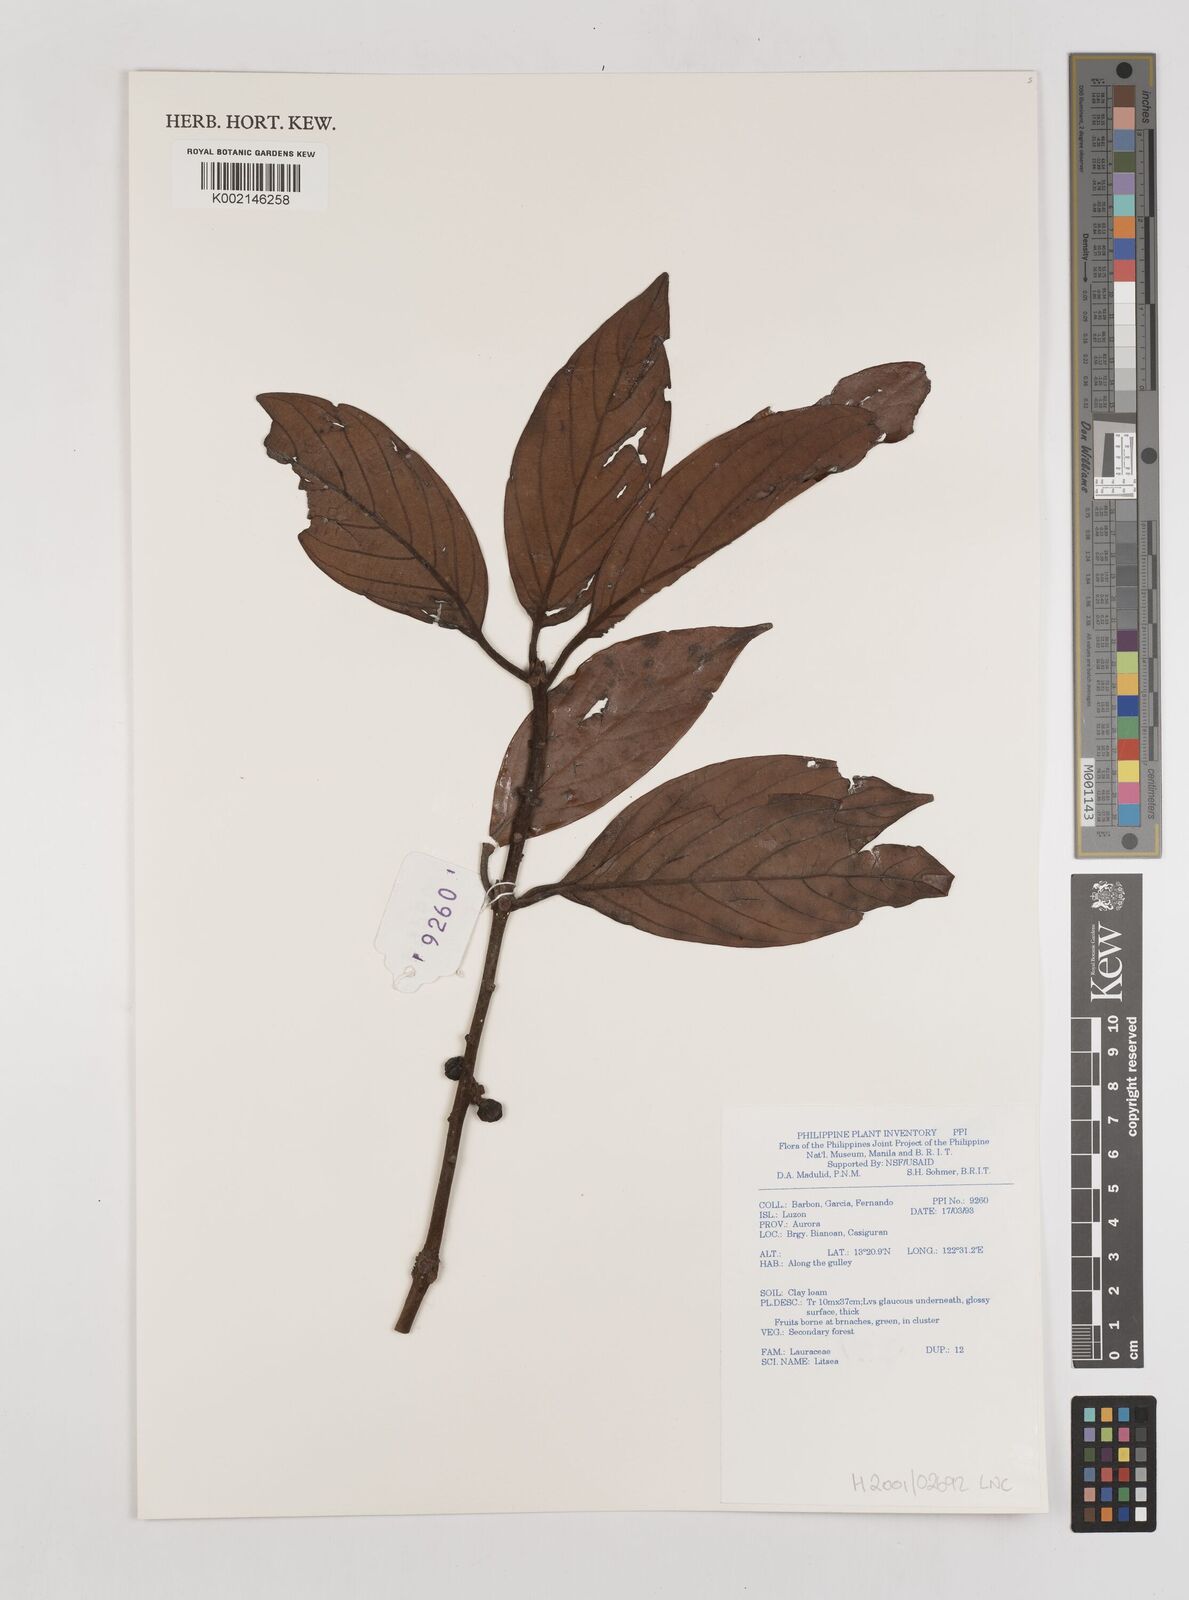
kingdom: Plantae
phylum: Tracheophyta
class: Magnoliopsida
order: Laurales
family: Lauraceae
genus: Litsea
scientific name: Litsea
